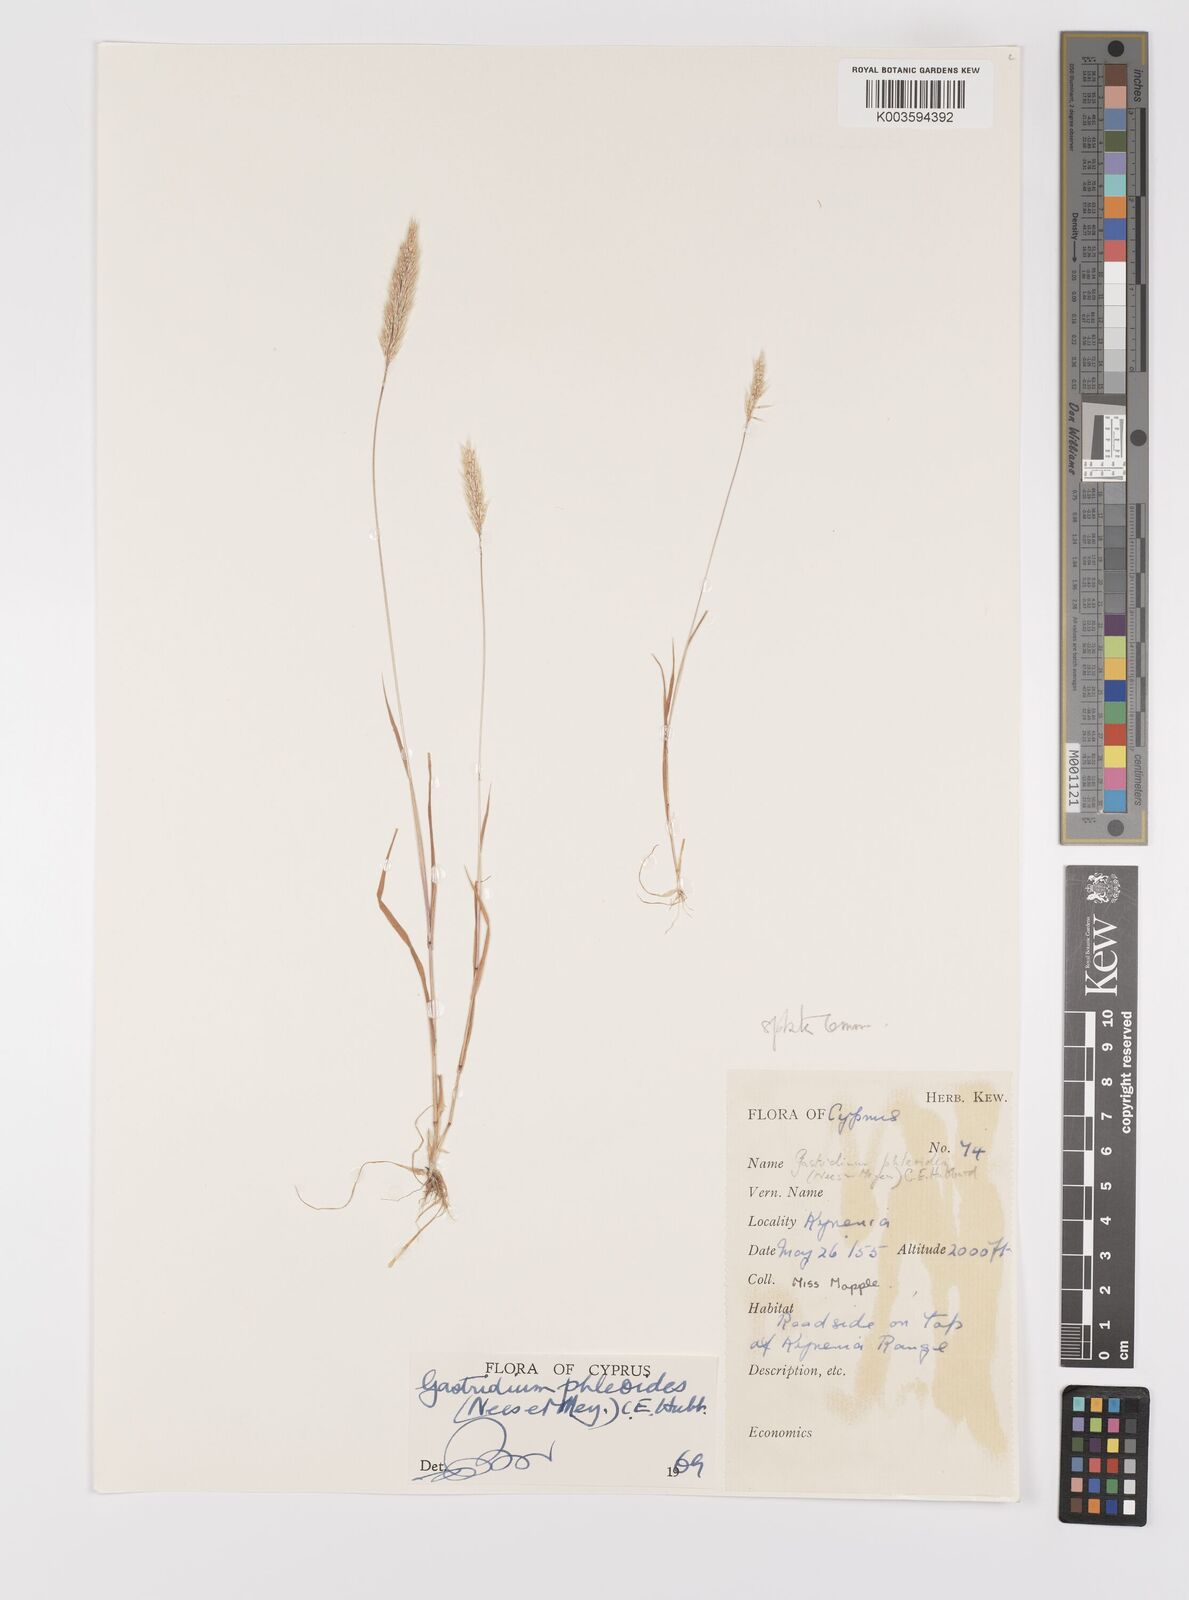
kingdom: Plantae
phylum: Tracheophyta
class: Liliopsida
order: Poales
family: Poaceae
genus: Gastridium
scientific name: Gastridium phleoides
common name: Nit grass
